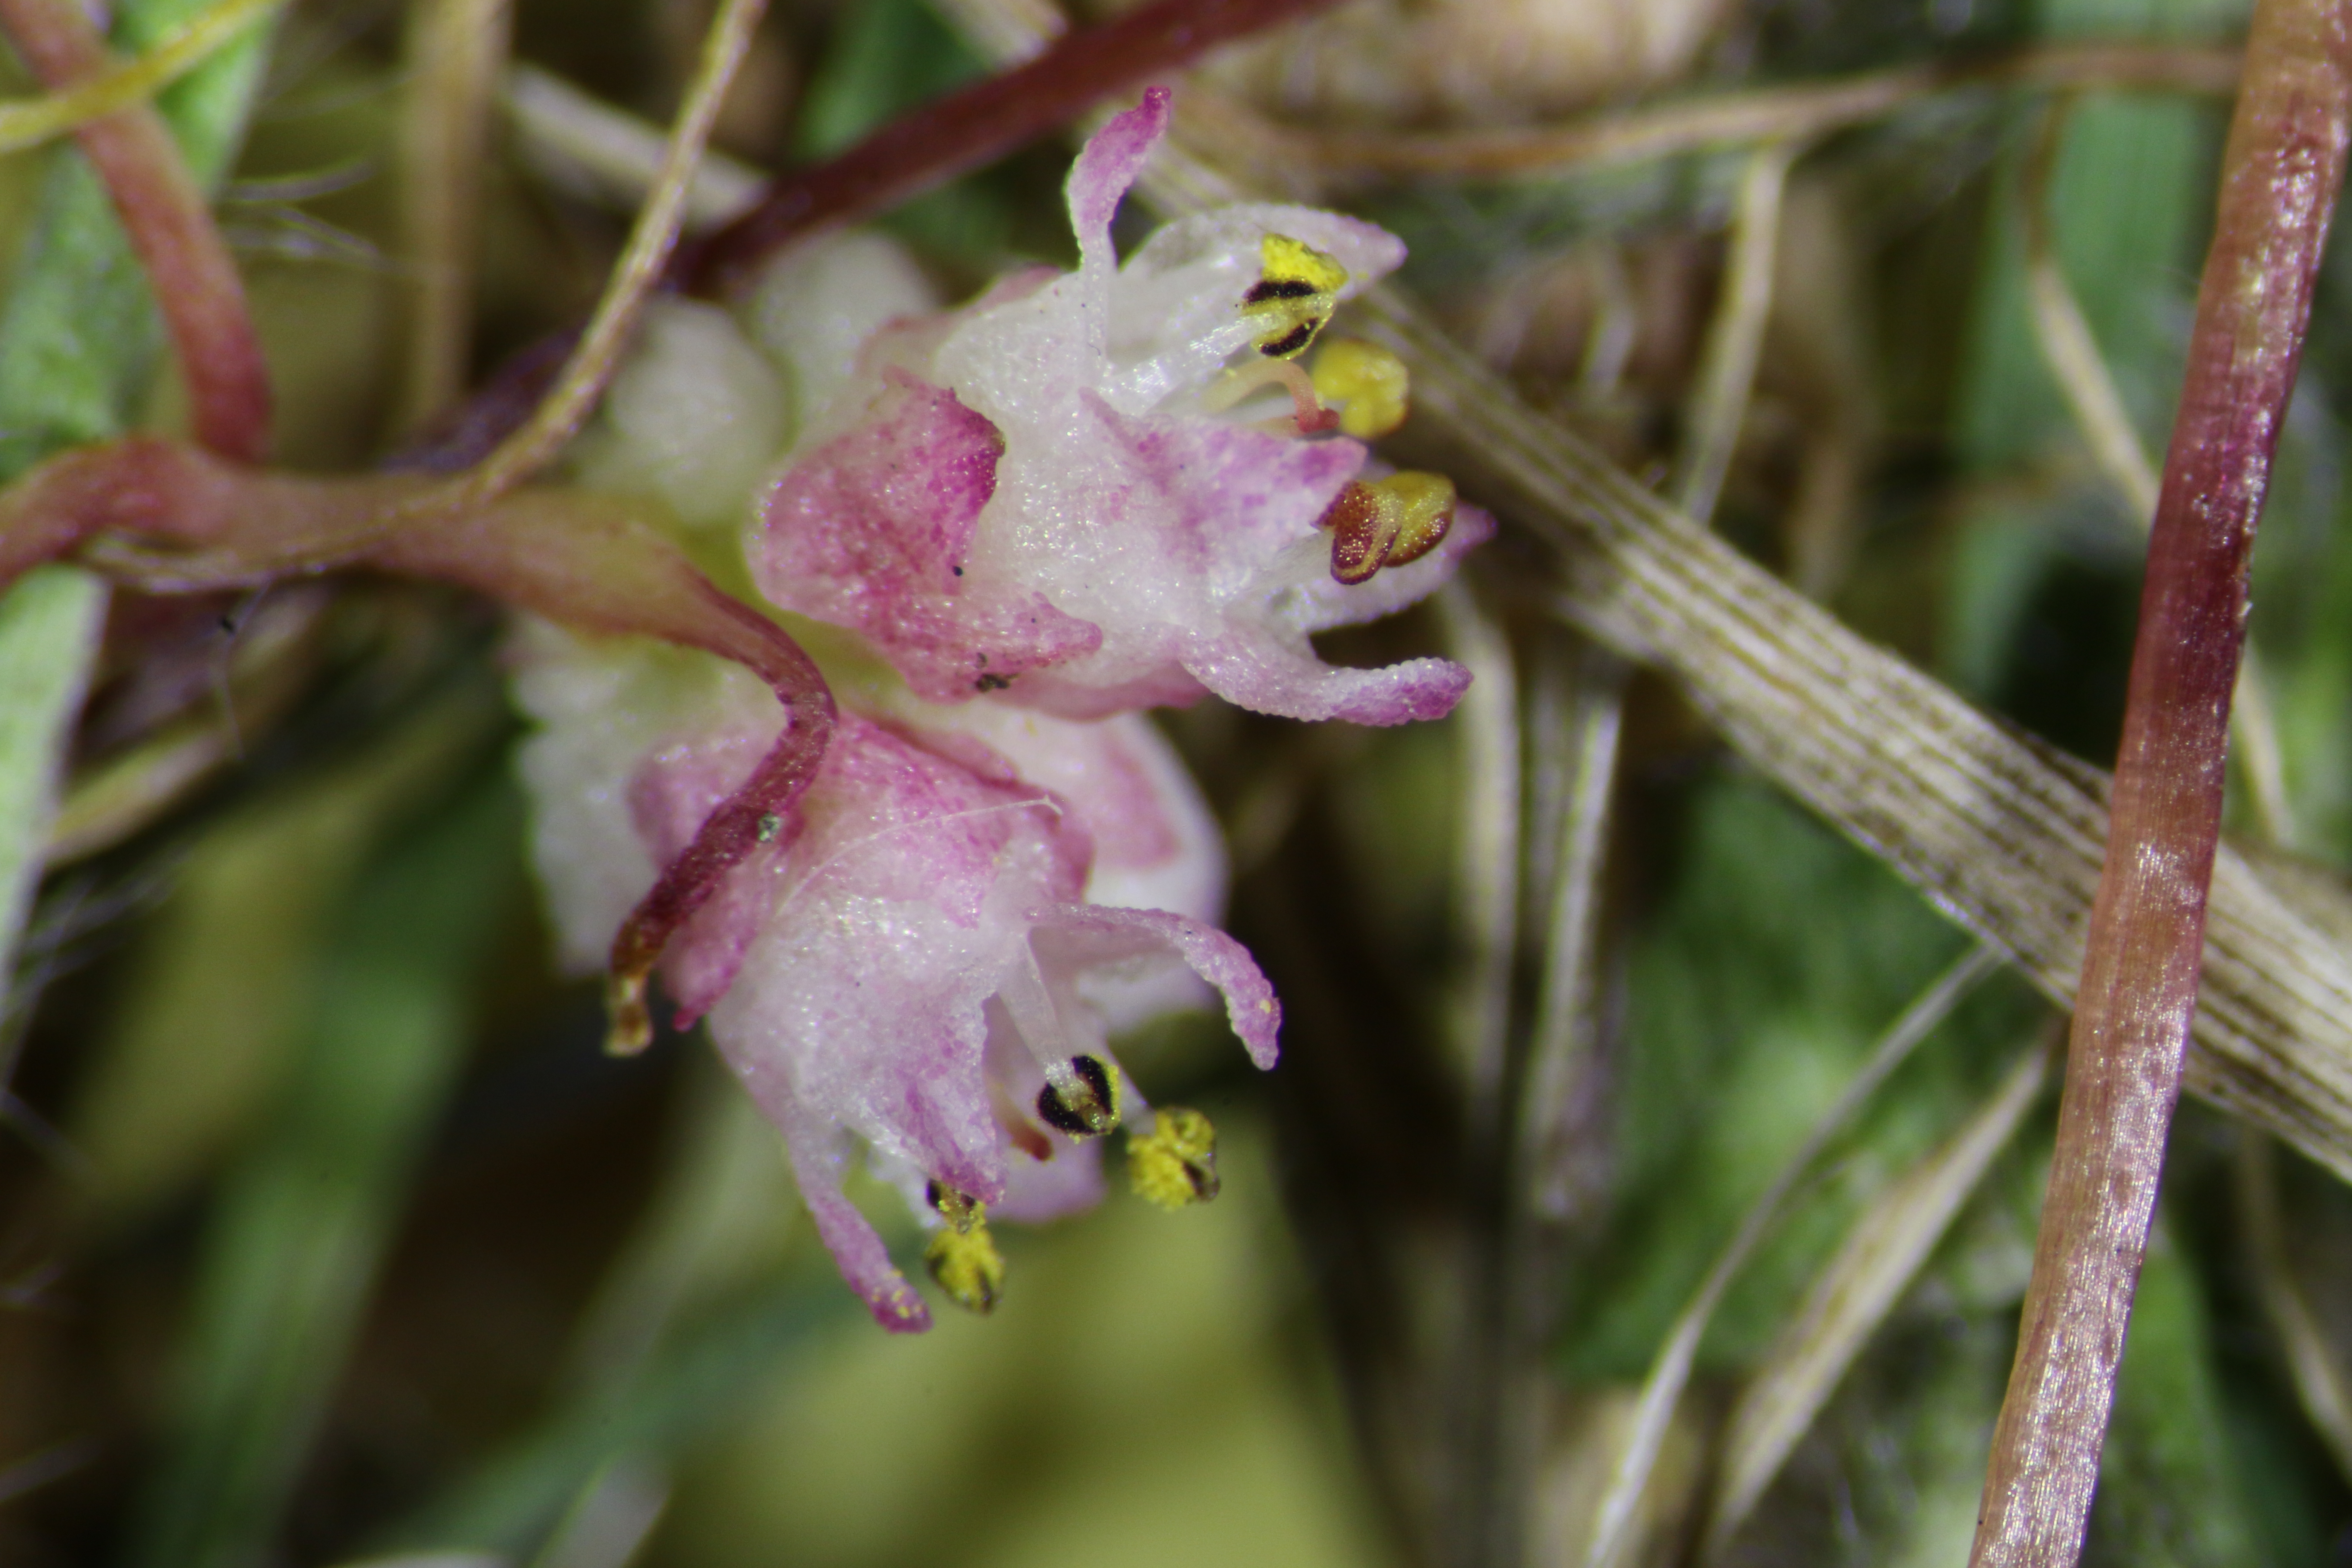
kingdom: Plantae
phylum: Tracheophyta
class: Magnoliopsida
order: Solanales
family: Convolvulaceae
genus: Cuscuta
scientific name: Cuscuta epithymum
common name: Clover dodder
